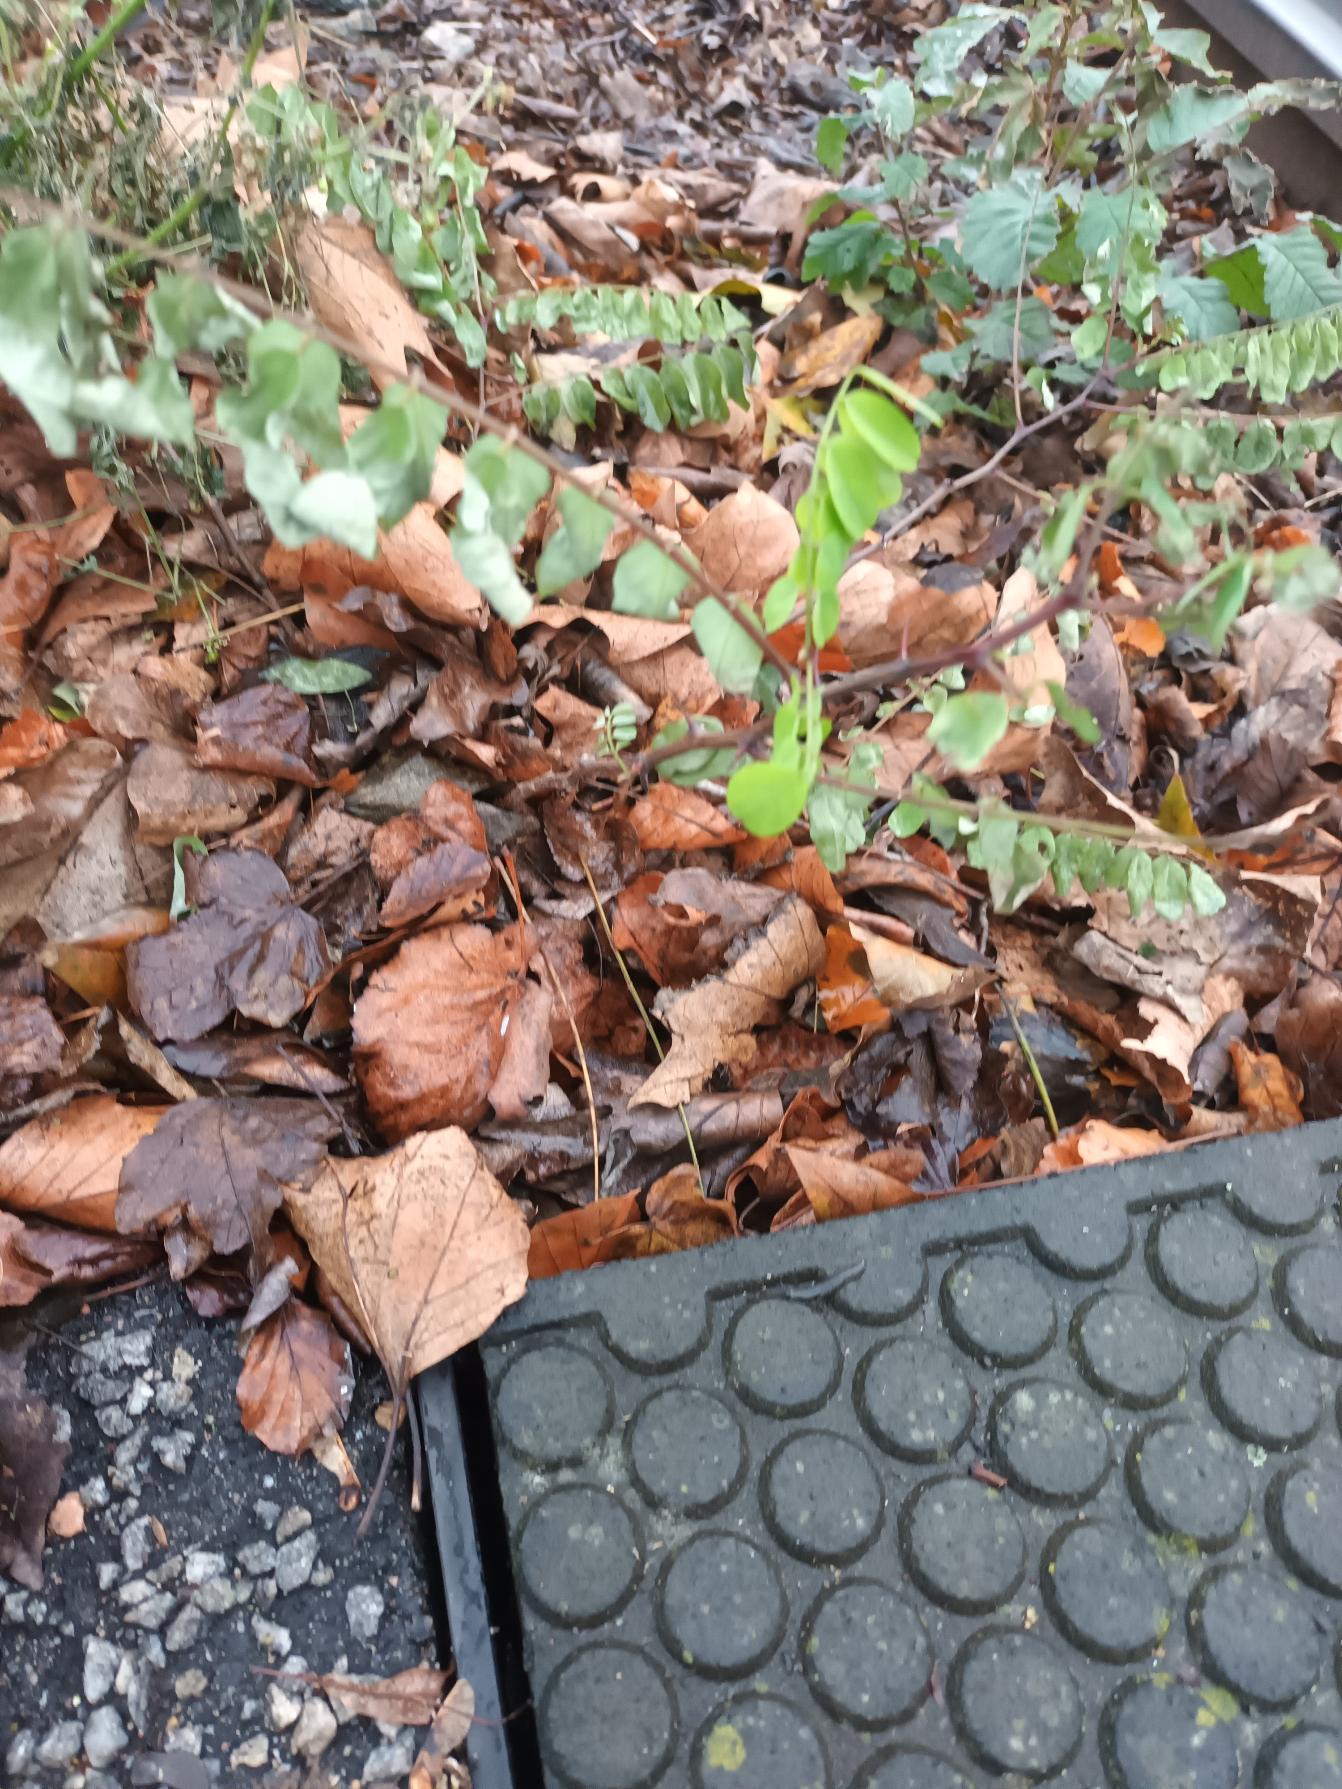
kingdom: Plantae
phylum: Tracheophyta
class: Magnoliopsida
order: Fabales
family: Fabaceae
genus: Robinia
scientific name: Robinia pseudoacacia
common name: Robinie
